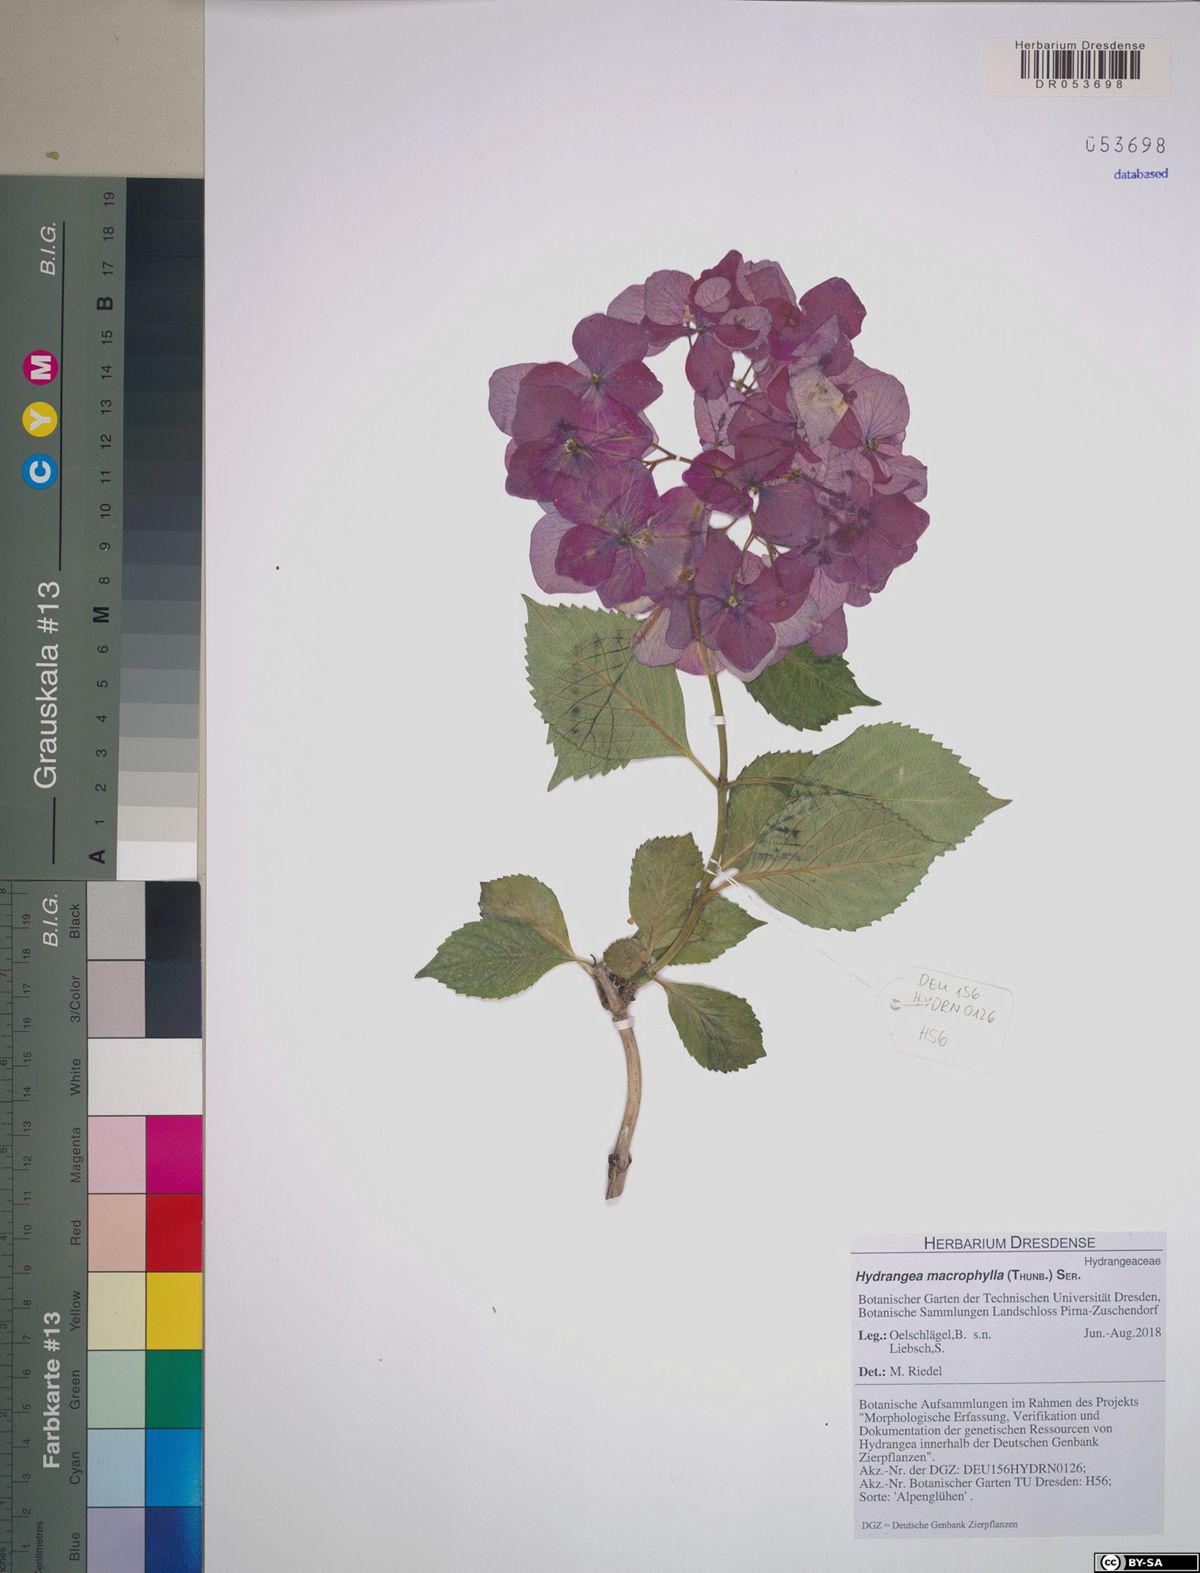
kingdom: Plantae
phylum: Tracheophyta
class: Magnoliopsida
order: Cornales
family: Hydrangeaceae
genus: Hydrangea
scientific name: Hydrangea macrophylla
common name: Hydrangea
